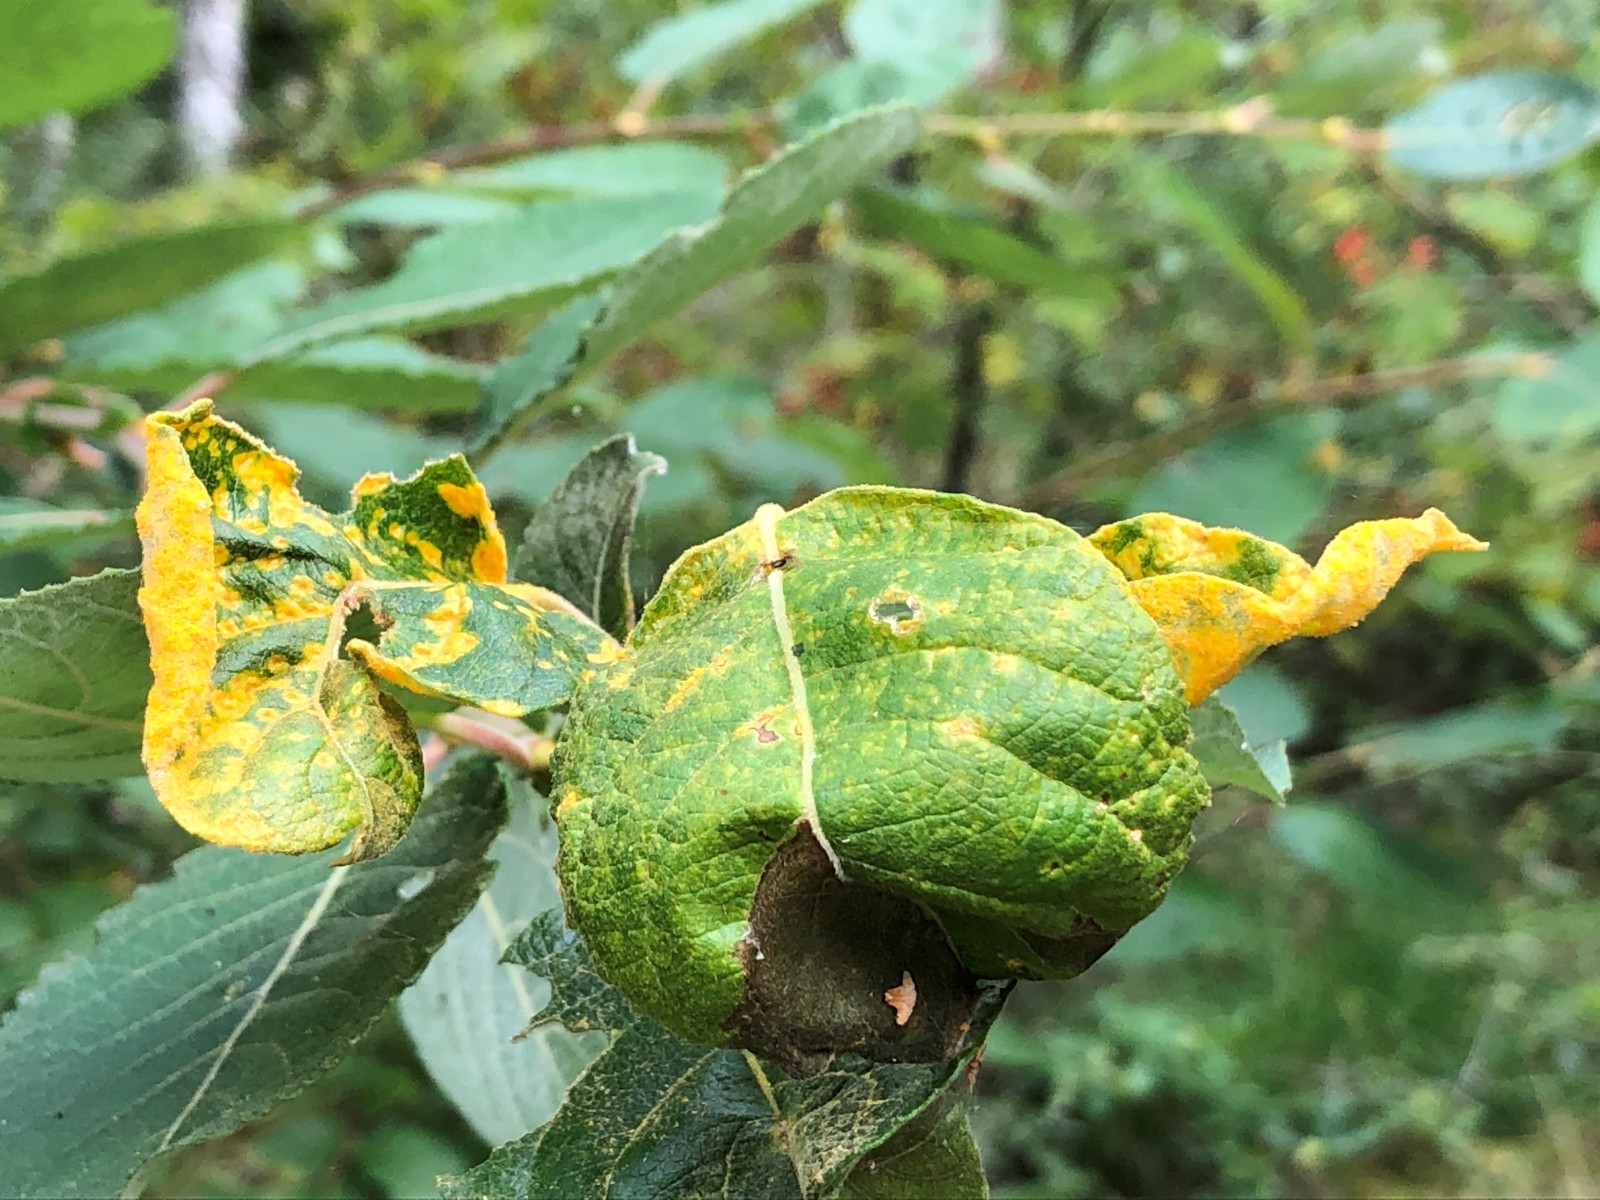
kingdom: Fungi
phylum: Basidiomycota
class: Pucciniomycetes
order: Pucciniales
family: Melampsoraceae
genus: Melampsora
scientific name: Melampsora epitea
